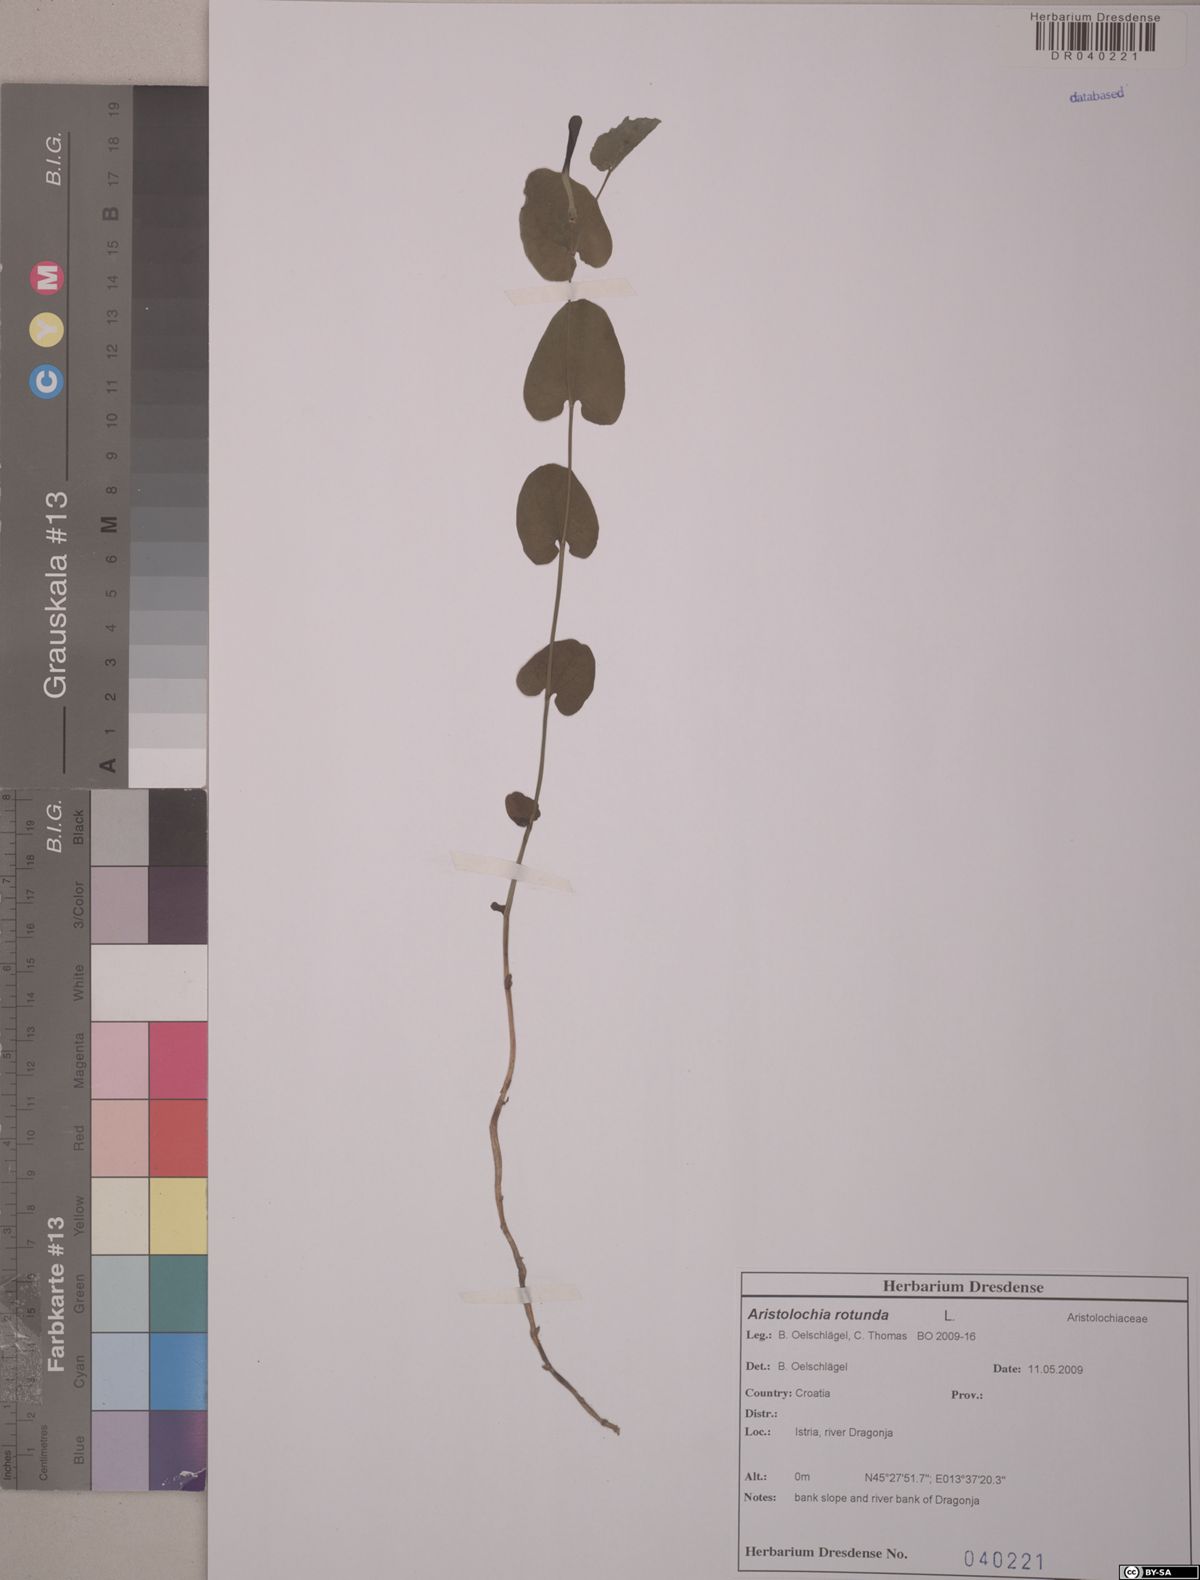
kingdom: Plantae
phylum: Tracheophyta
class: Magnoliopsida
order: Piperales
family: Aristolochiaceae
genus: Aristolochia
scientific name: Aristolochia rotunda
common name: Smearwort
